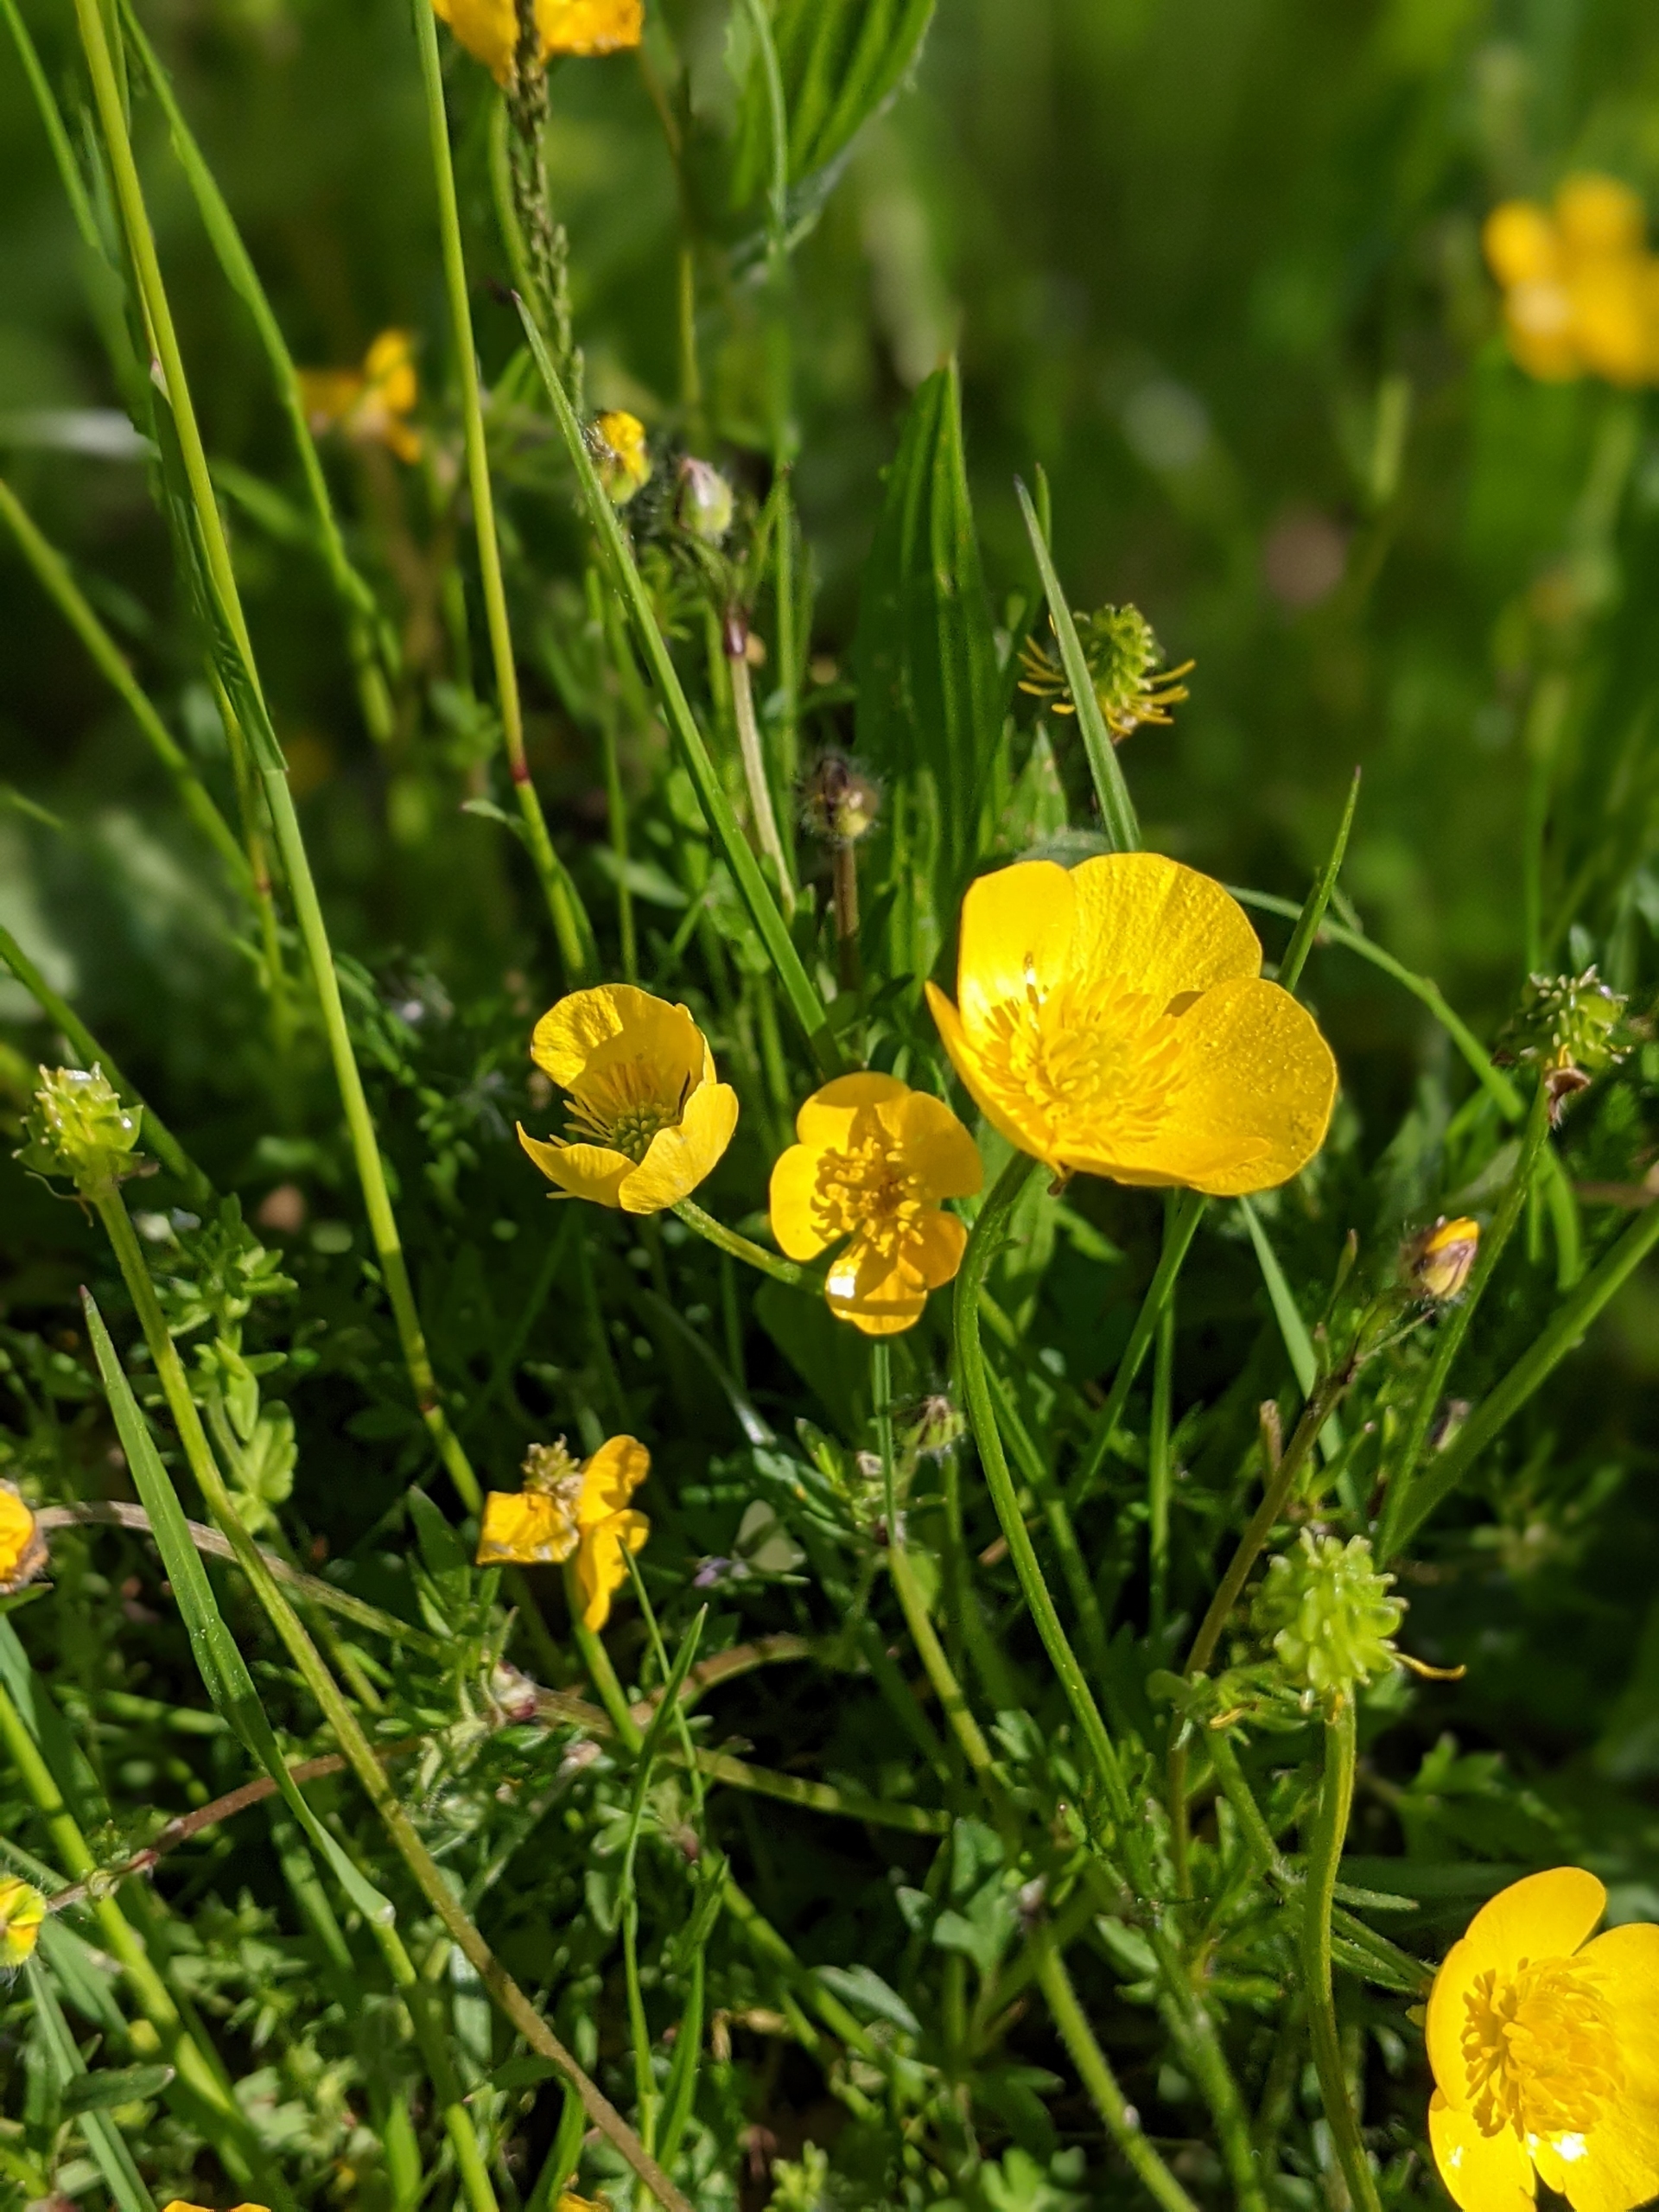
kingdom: Plantae
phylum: Tracheophyta
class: Magnoliopsida
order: Ranunculales
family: Ranunculaceae
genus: Ranunculus
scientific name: Ranunculus bulbosus
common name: Knold-ranunkel
